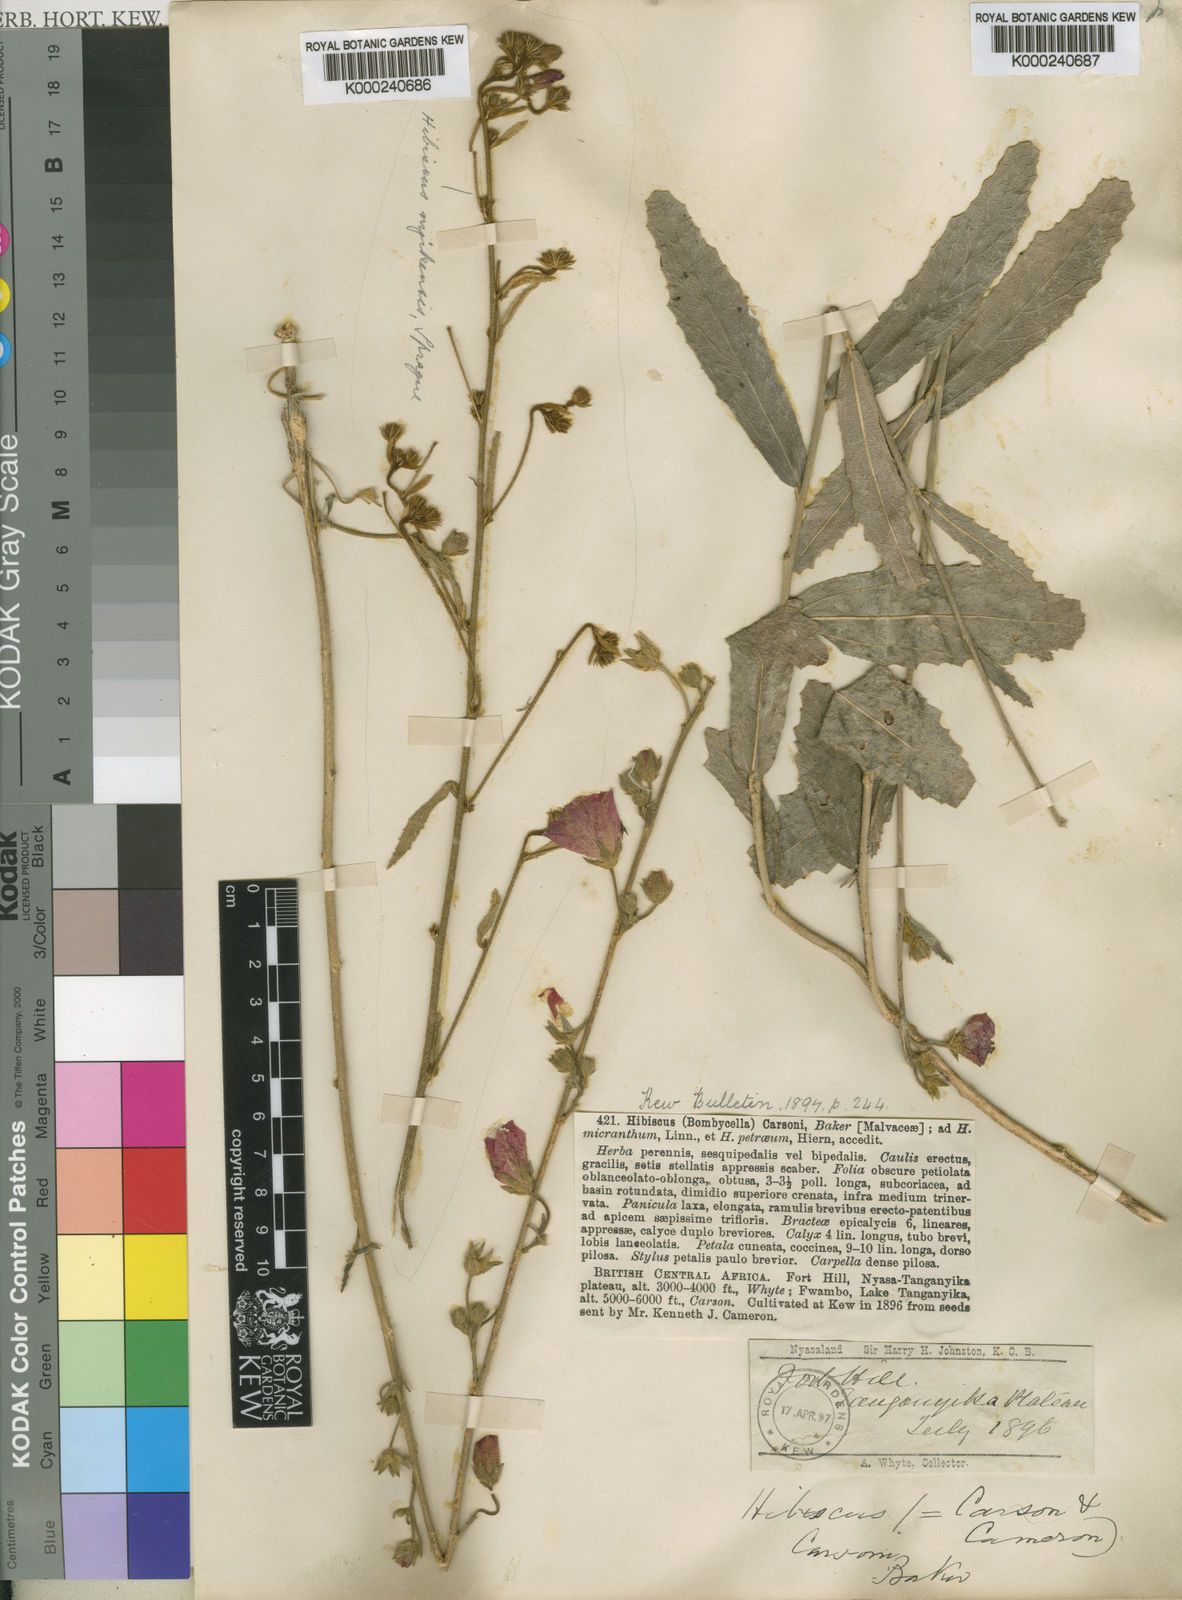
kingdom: Plantae
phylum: Tracheophyta
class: Magnoliopsida
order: Malvales
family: Malvaceae
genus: Hibiscus
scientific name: Hibiscus
